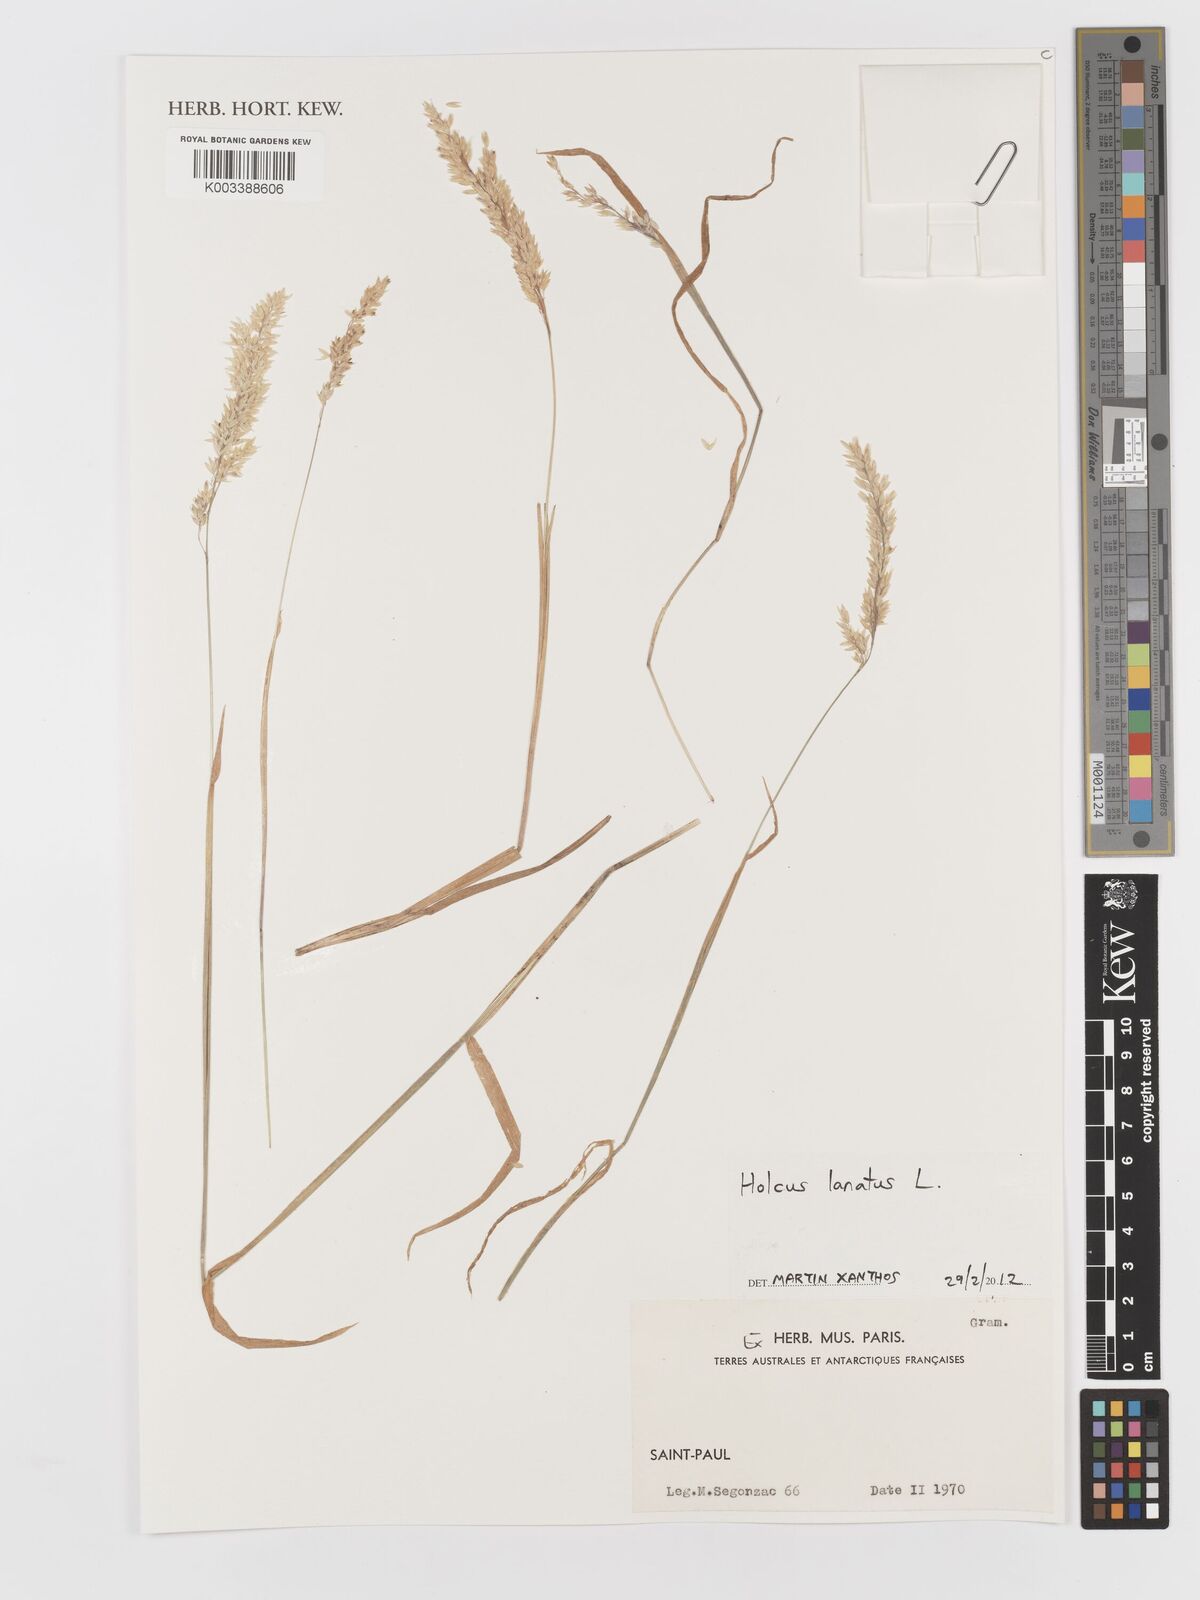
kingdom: Plantae
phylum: Tracheophyta
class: Liliopsida
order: Poales
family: Poaceae
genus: Holcus
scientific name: Holcus lanatus
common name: Yorkshire-fog
